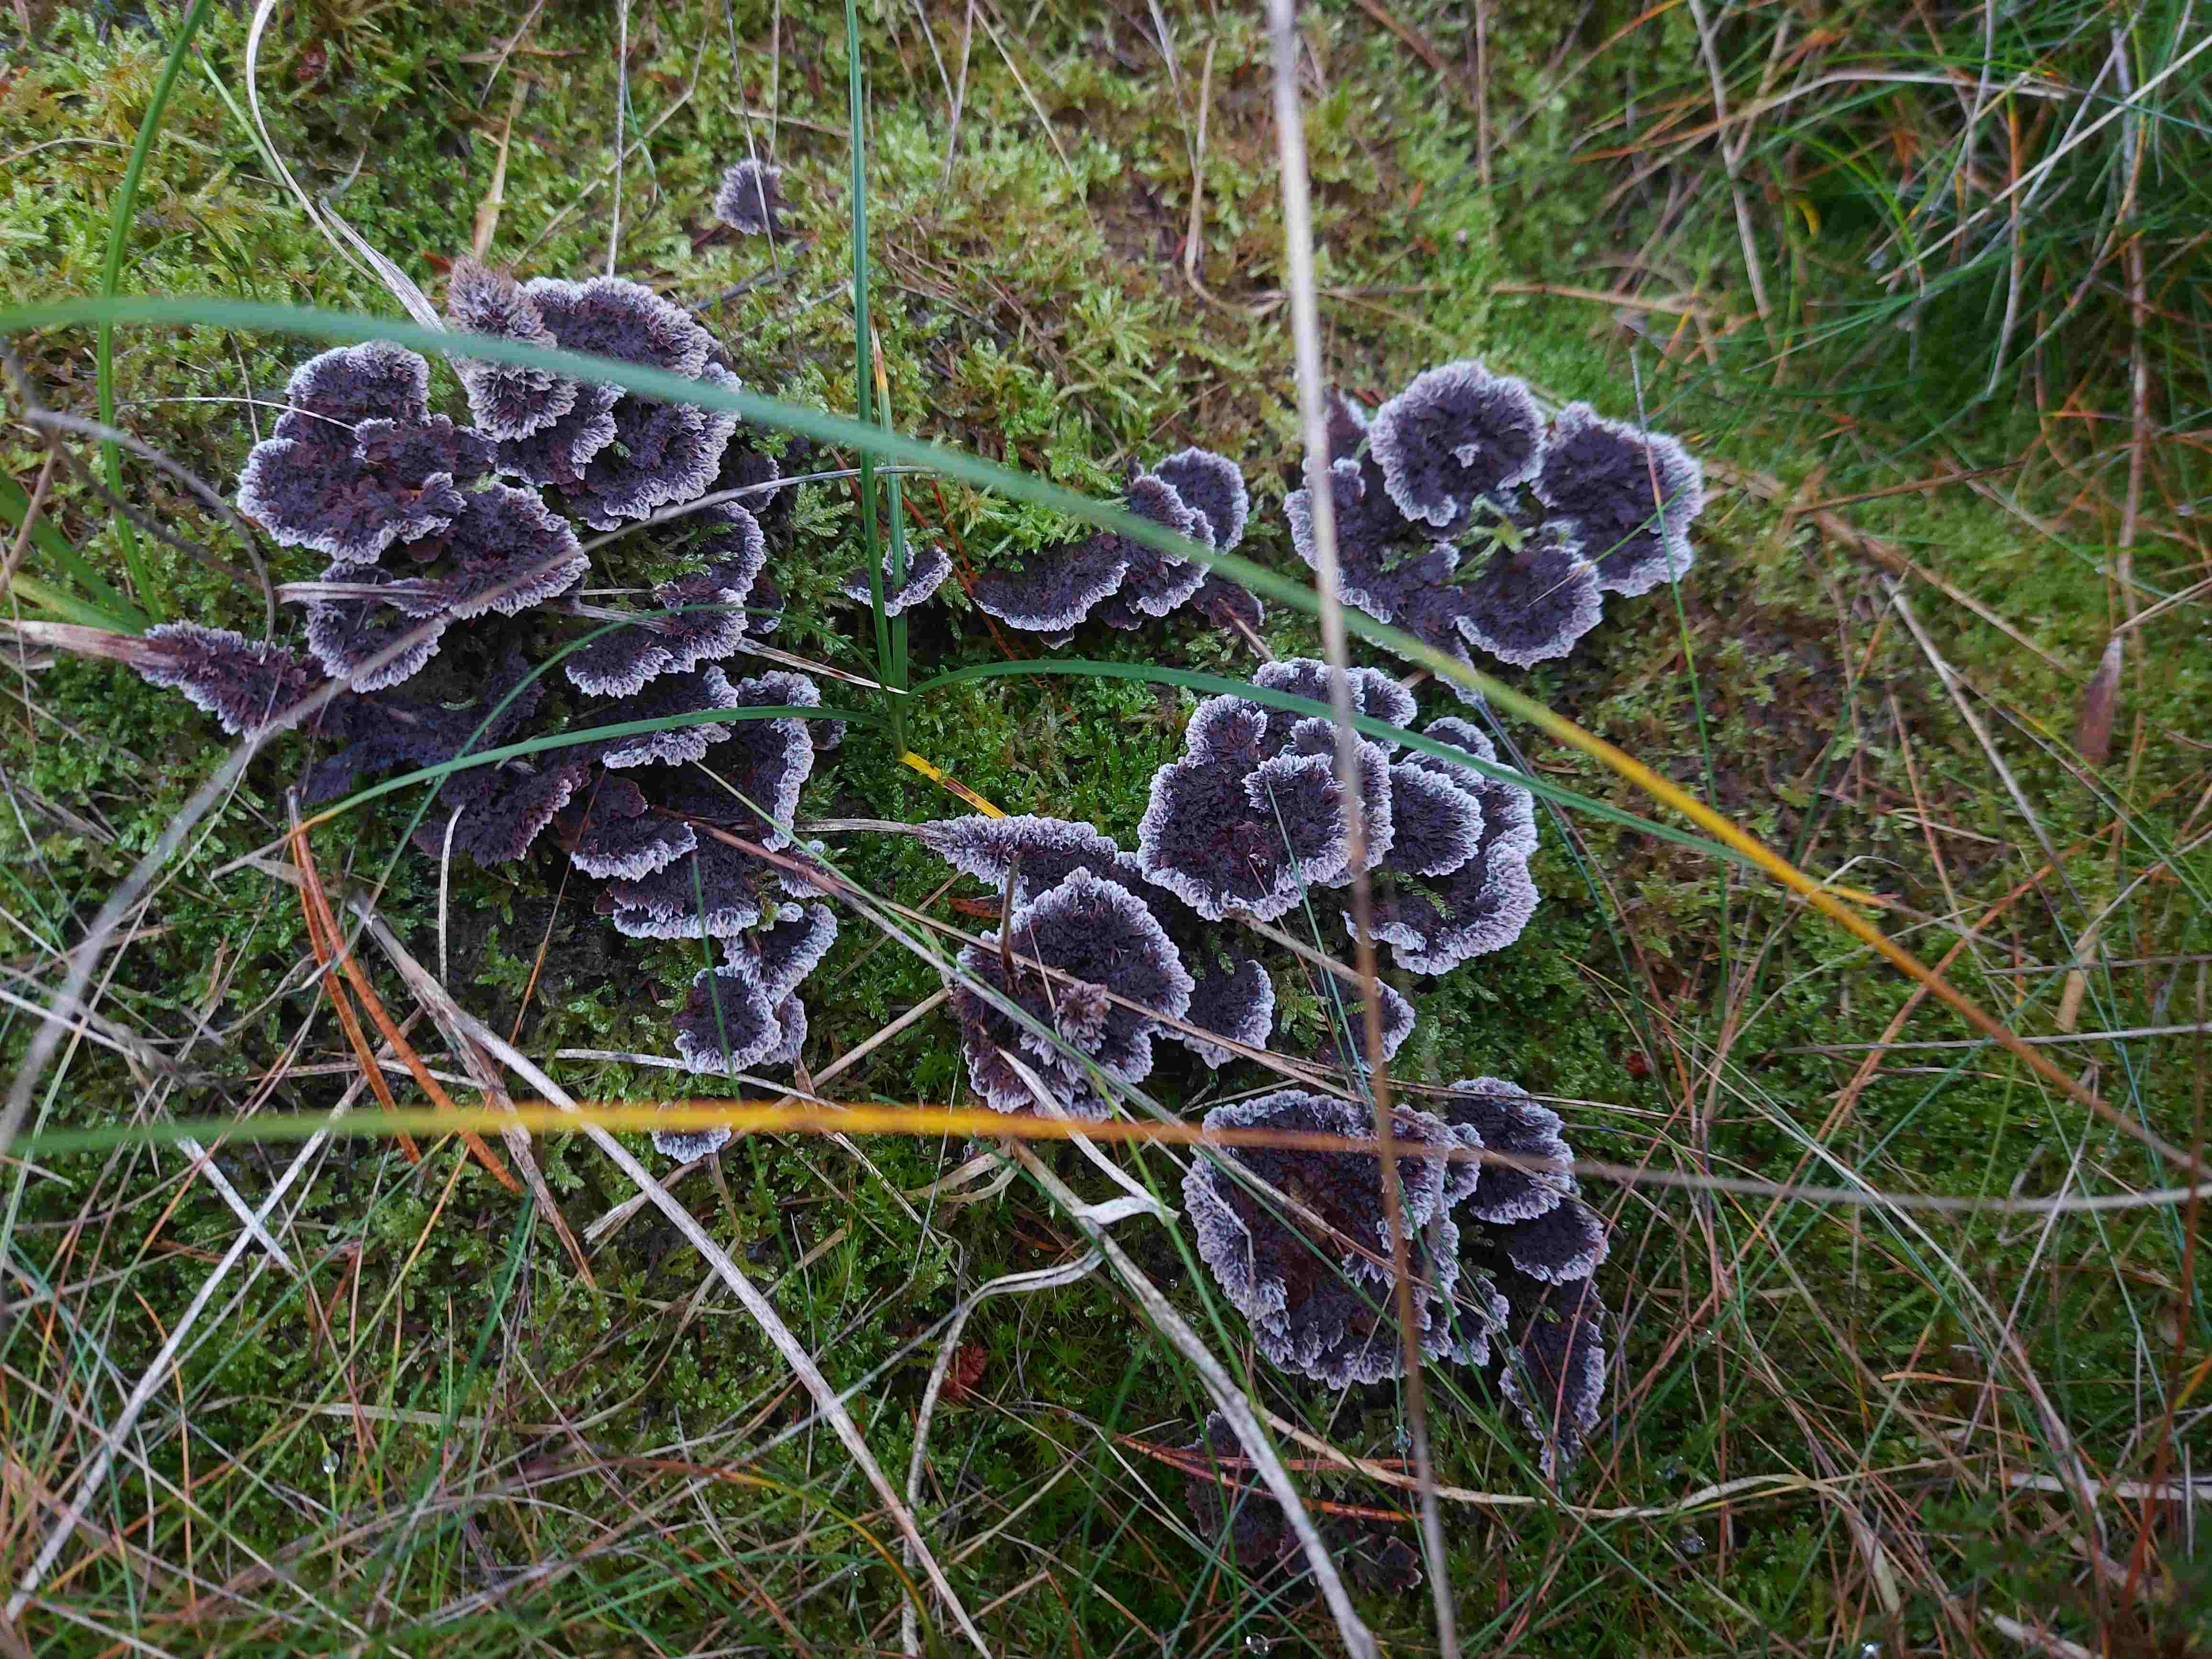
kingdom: Fungi
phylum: Basidiomycota
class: Agaricomycetes
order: Thelephorales
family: Thelephoraceae
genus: Thelephora
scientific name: Thelephora terrestris
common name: fliget frynsesvamp
